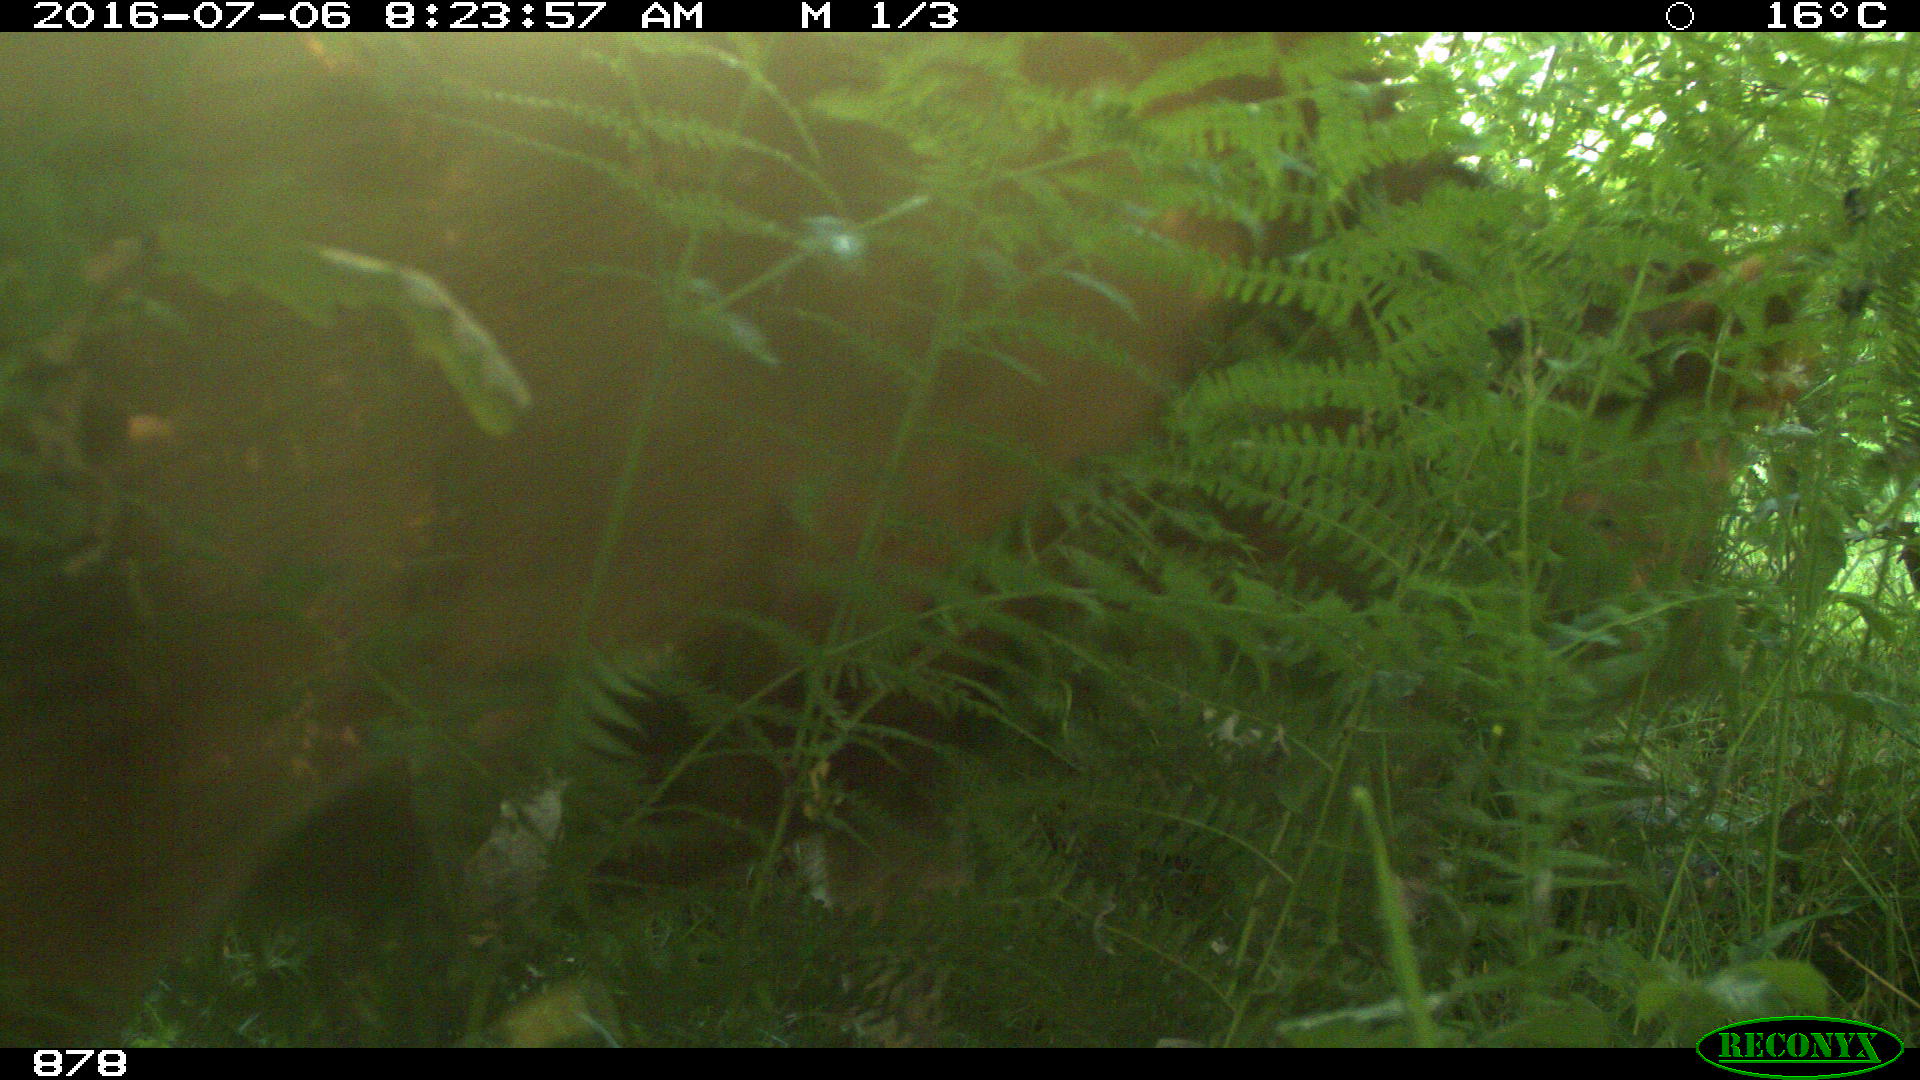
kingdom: Animalia
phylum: Chordata
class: Mammalia
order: Artiodactyla
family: Bovidae
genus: Bos
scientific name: Bos taurus
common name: Domesticated cattle
